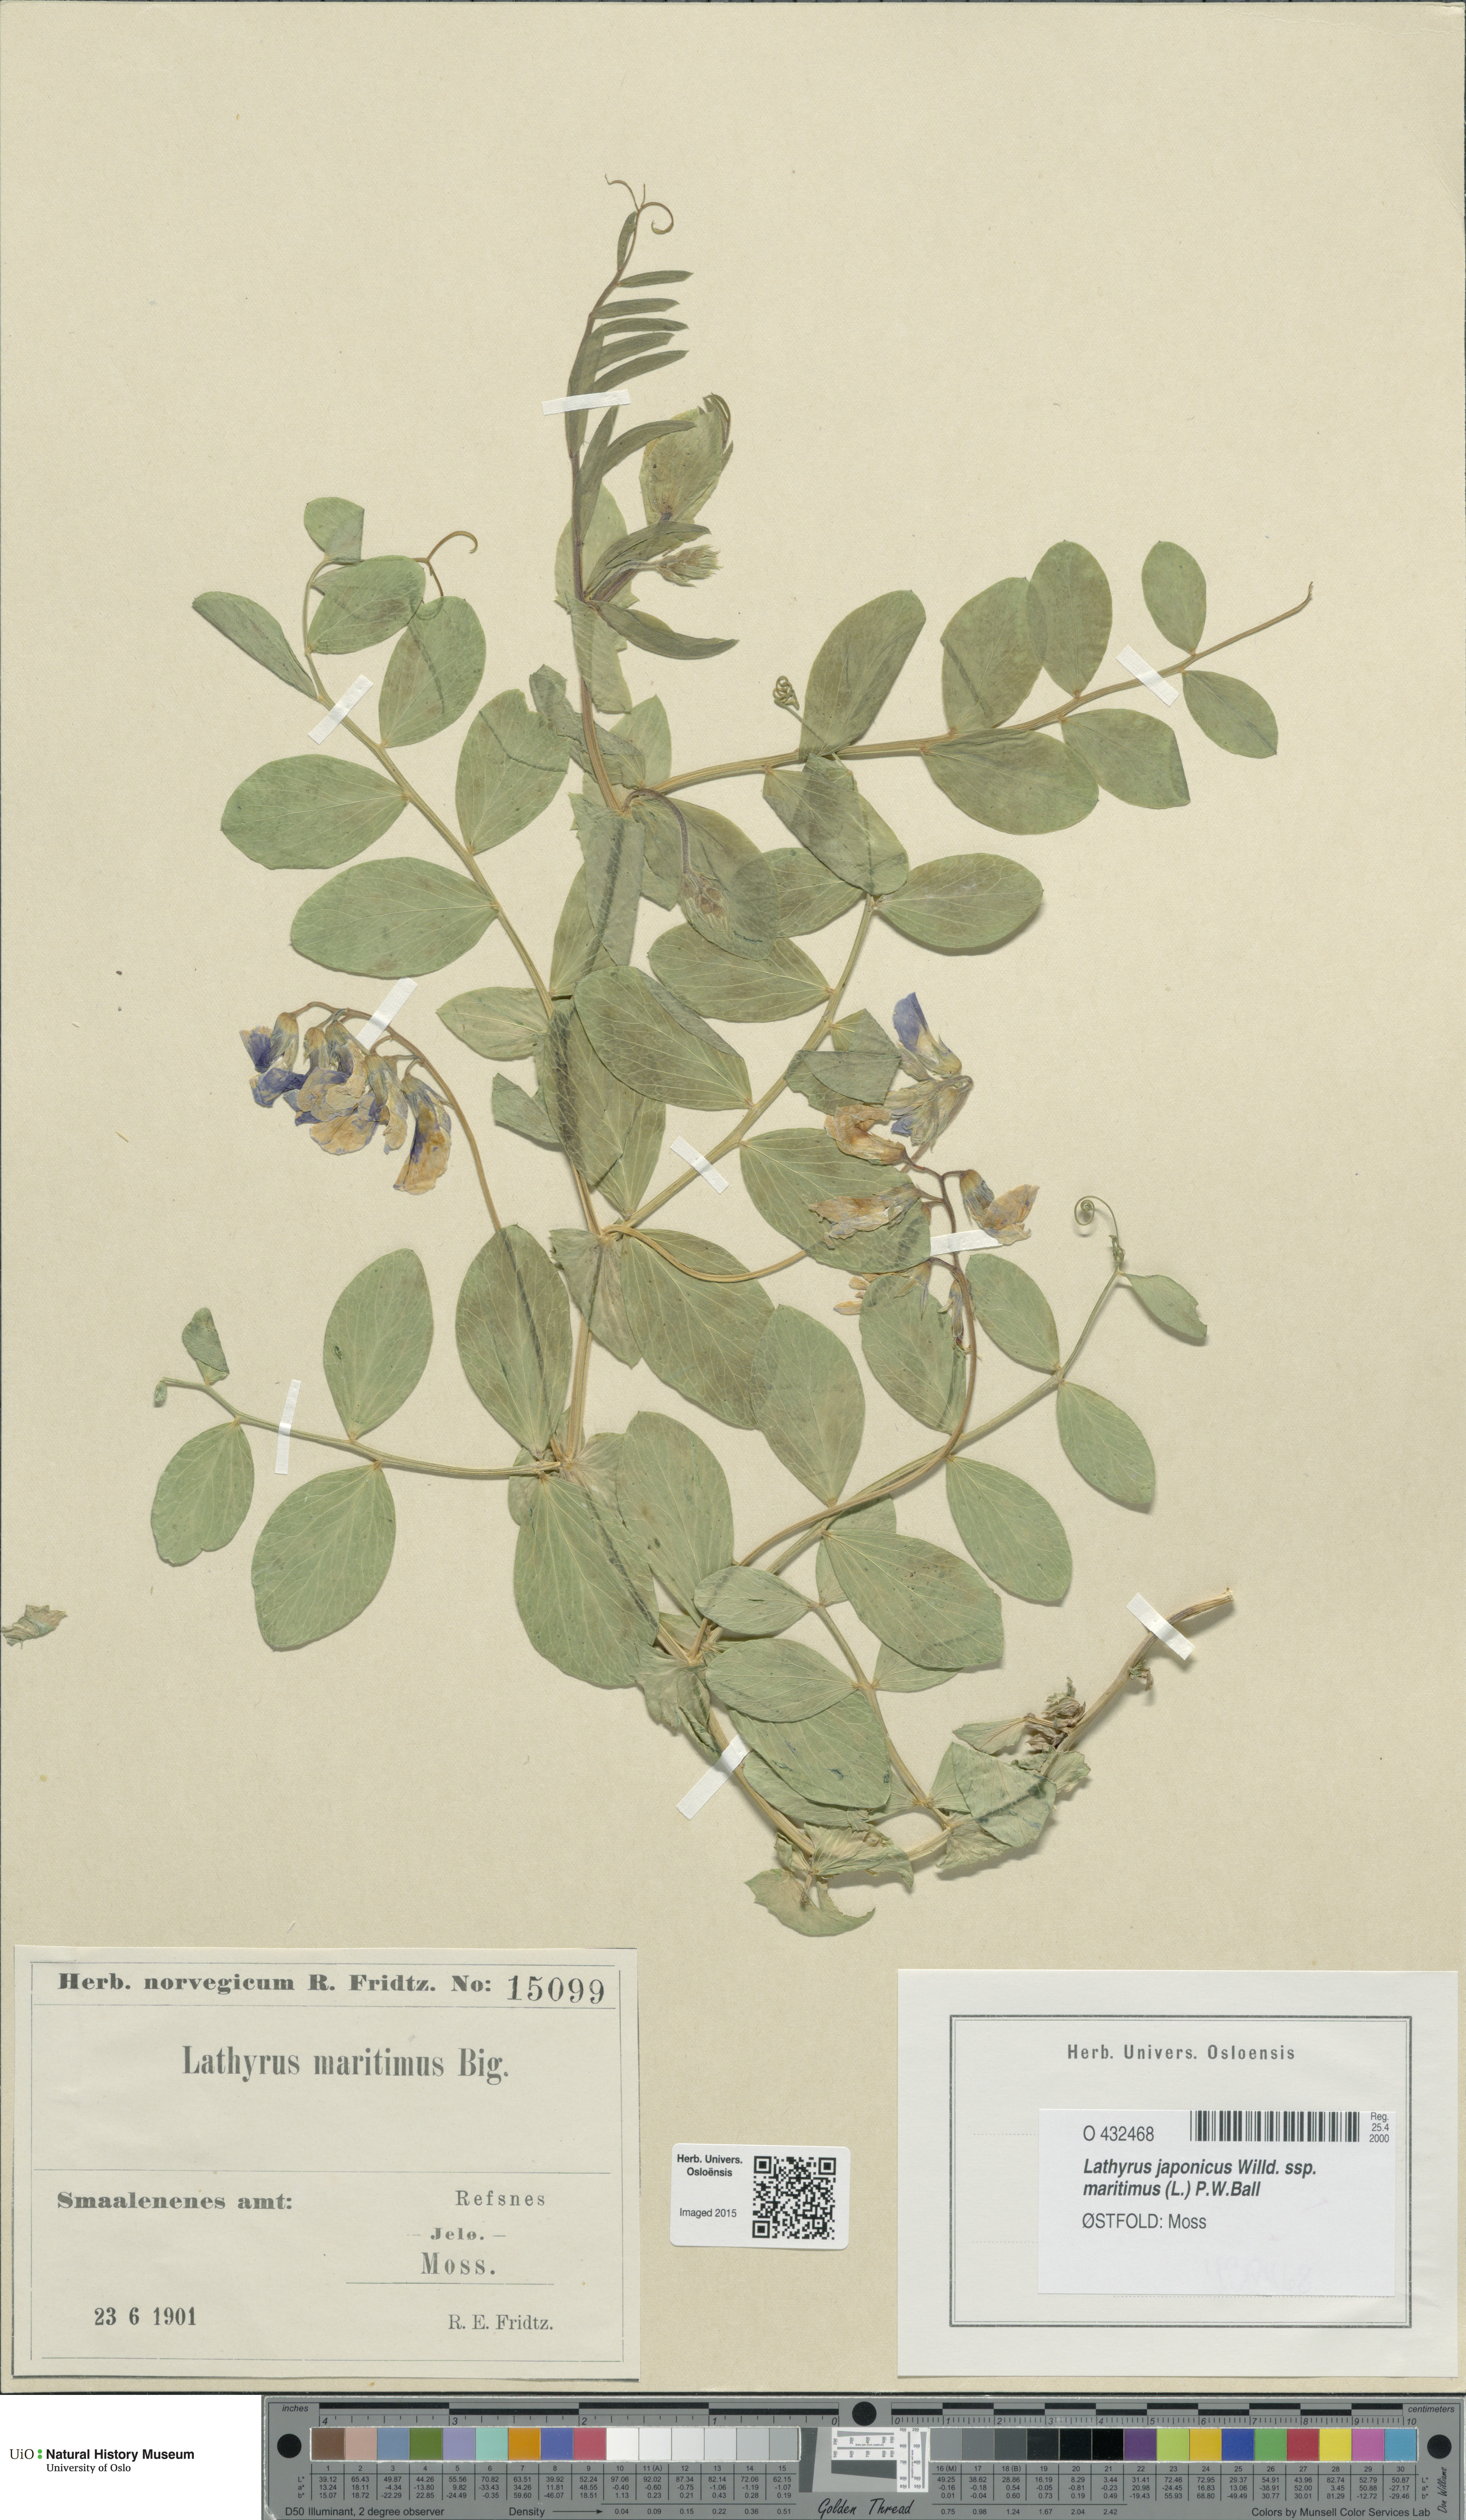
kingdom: Plantae
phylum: Tracheophyta
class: Magnoliopsida
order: Fabales
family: Fabaceae
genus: Lathyrus
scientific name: Lathyrus japonicus
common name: Sea pea
